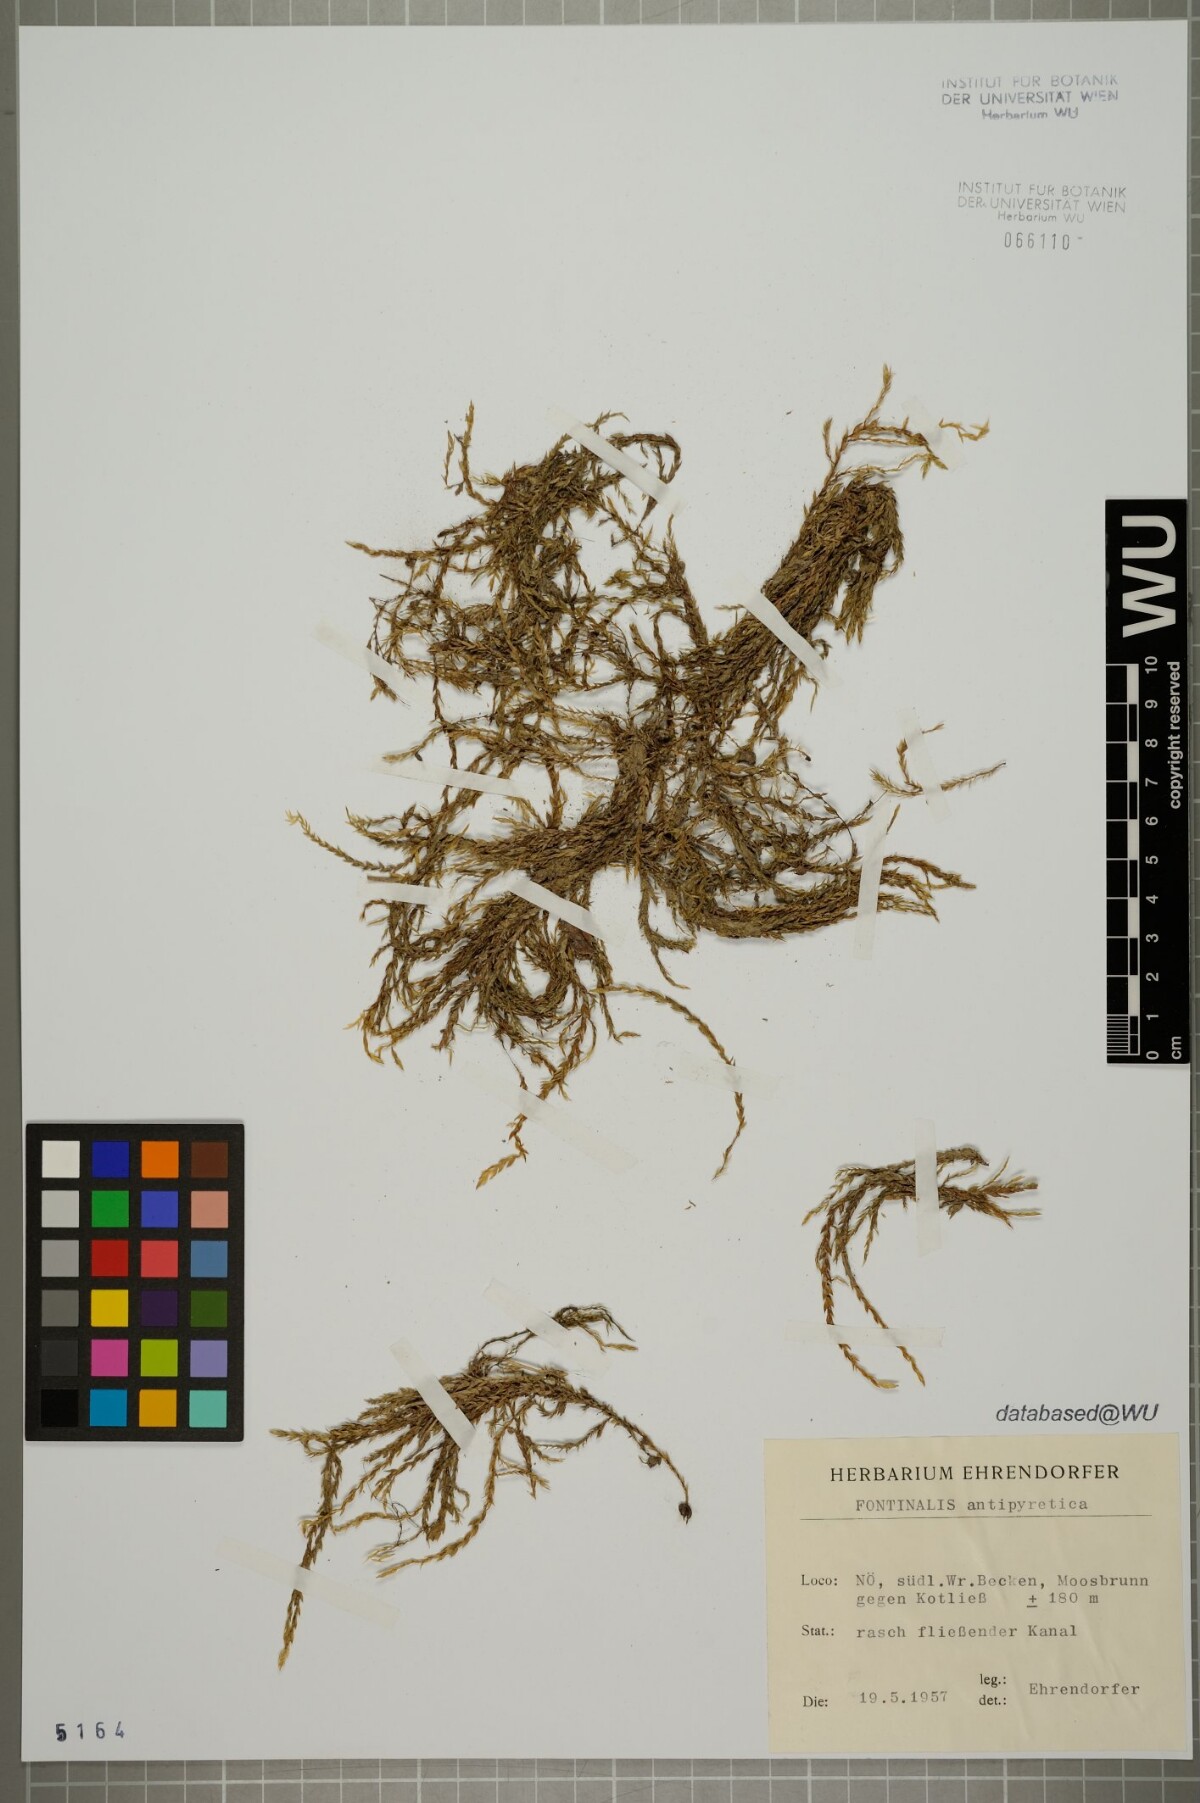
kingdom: Plantae
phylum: Bryophyta
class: Bryopsida
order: Hypnales
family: Fontinalaceae
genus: Fontinalis
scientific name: Fontinalis antipyretica
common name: Greater water-moss
